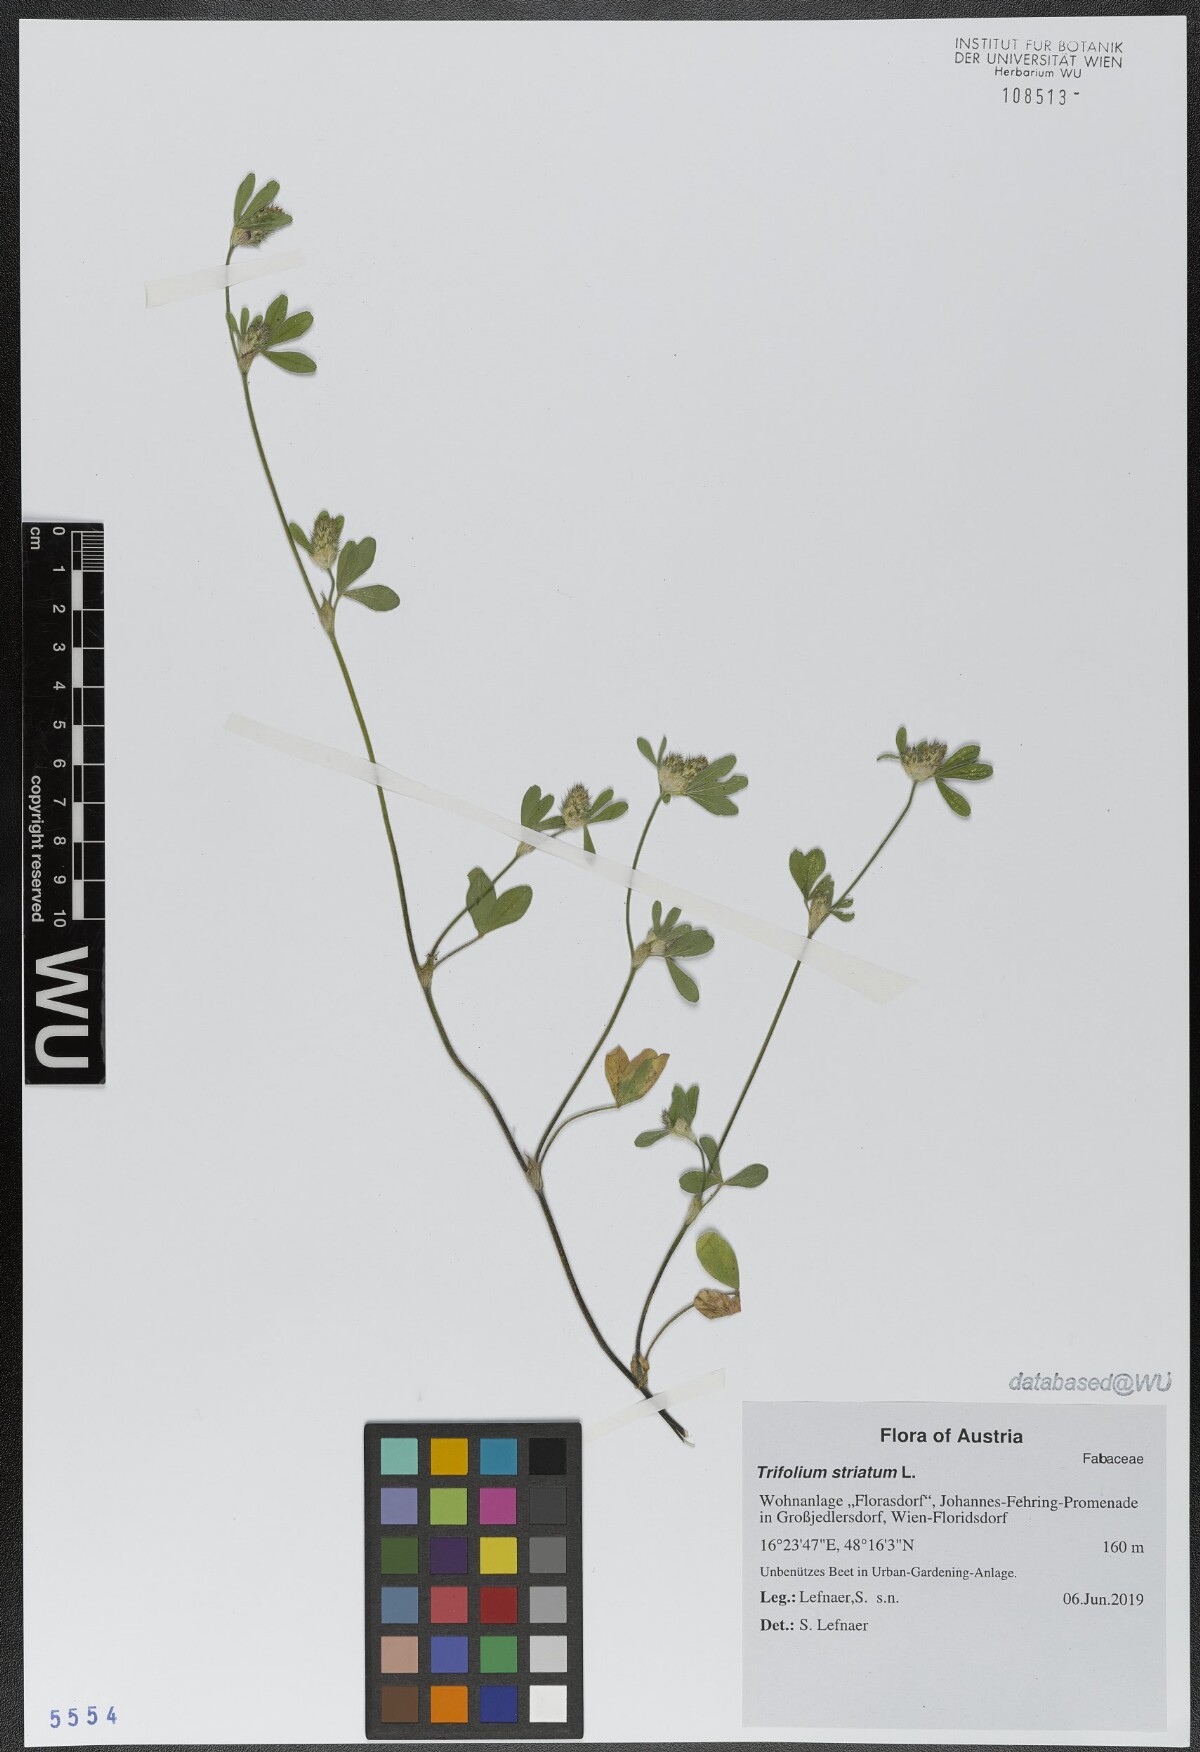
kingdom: Plantae
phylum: Tracheophyta
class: Magnoliopsida
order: Fabales
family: Fabaceae
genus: Trifolium
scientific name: Trifolium striatum
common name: Knotted clover
